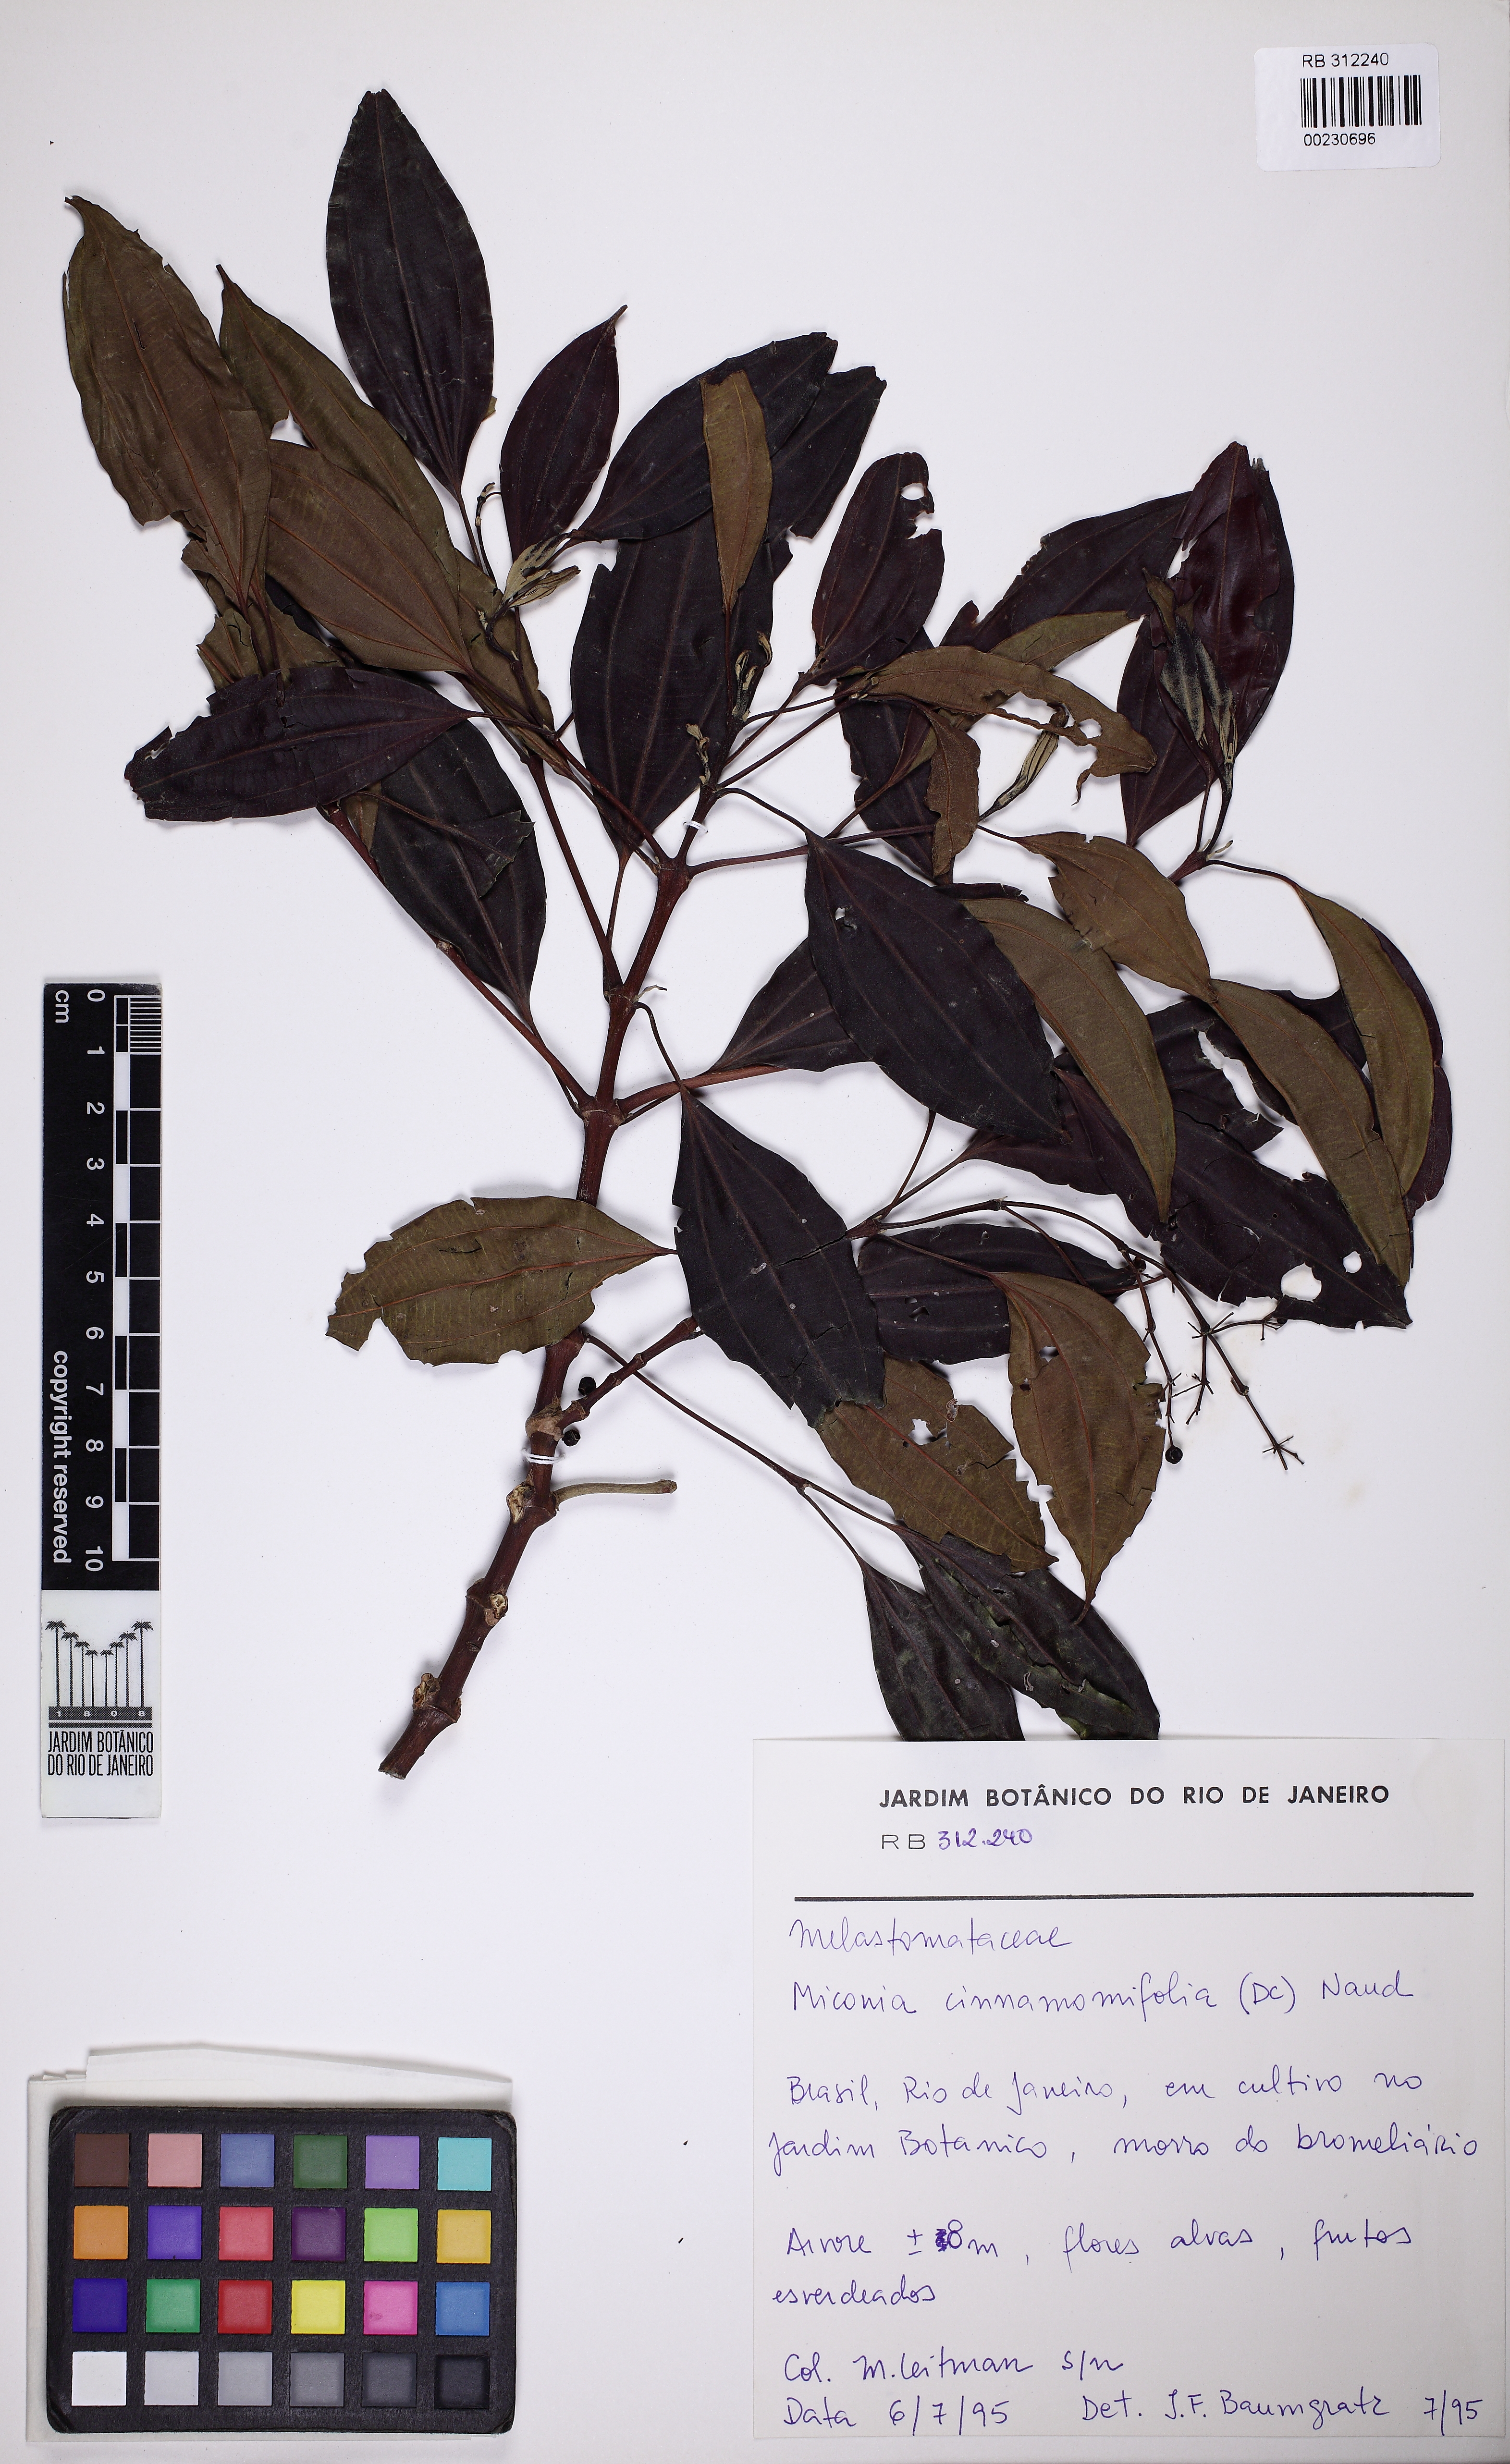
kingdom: Plantae
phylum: Tracheophyta
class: Magnoliopsida
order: Myrtales
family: Melastomataceae
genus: Miconia
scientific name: Miconia cinnamomifolia
